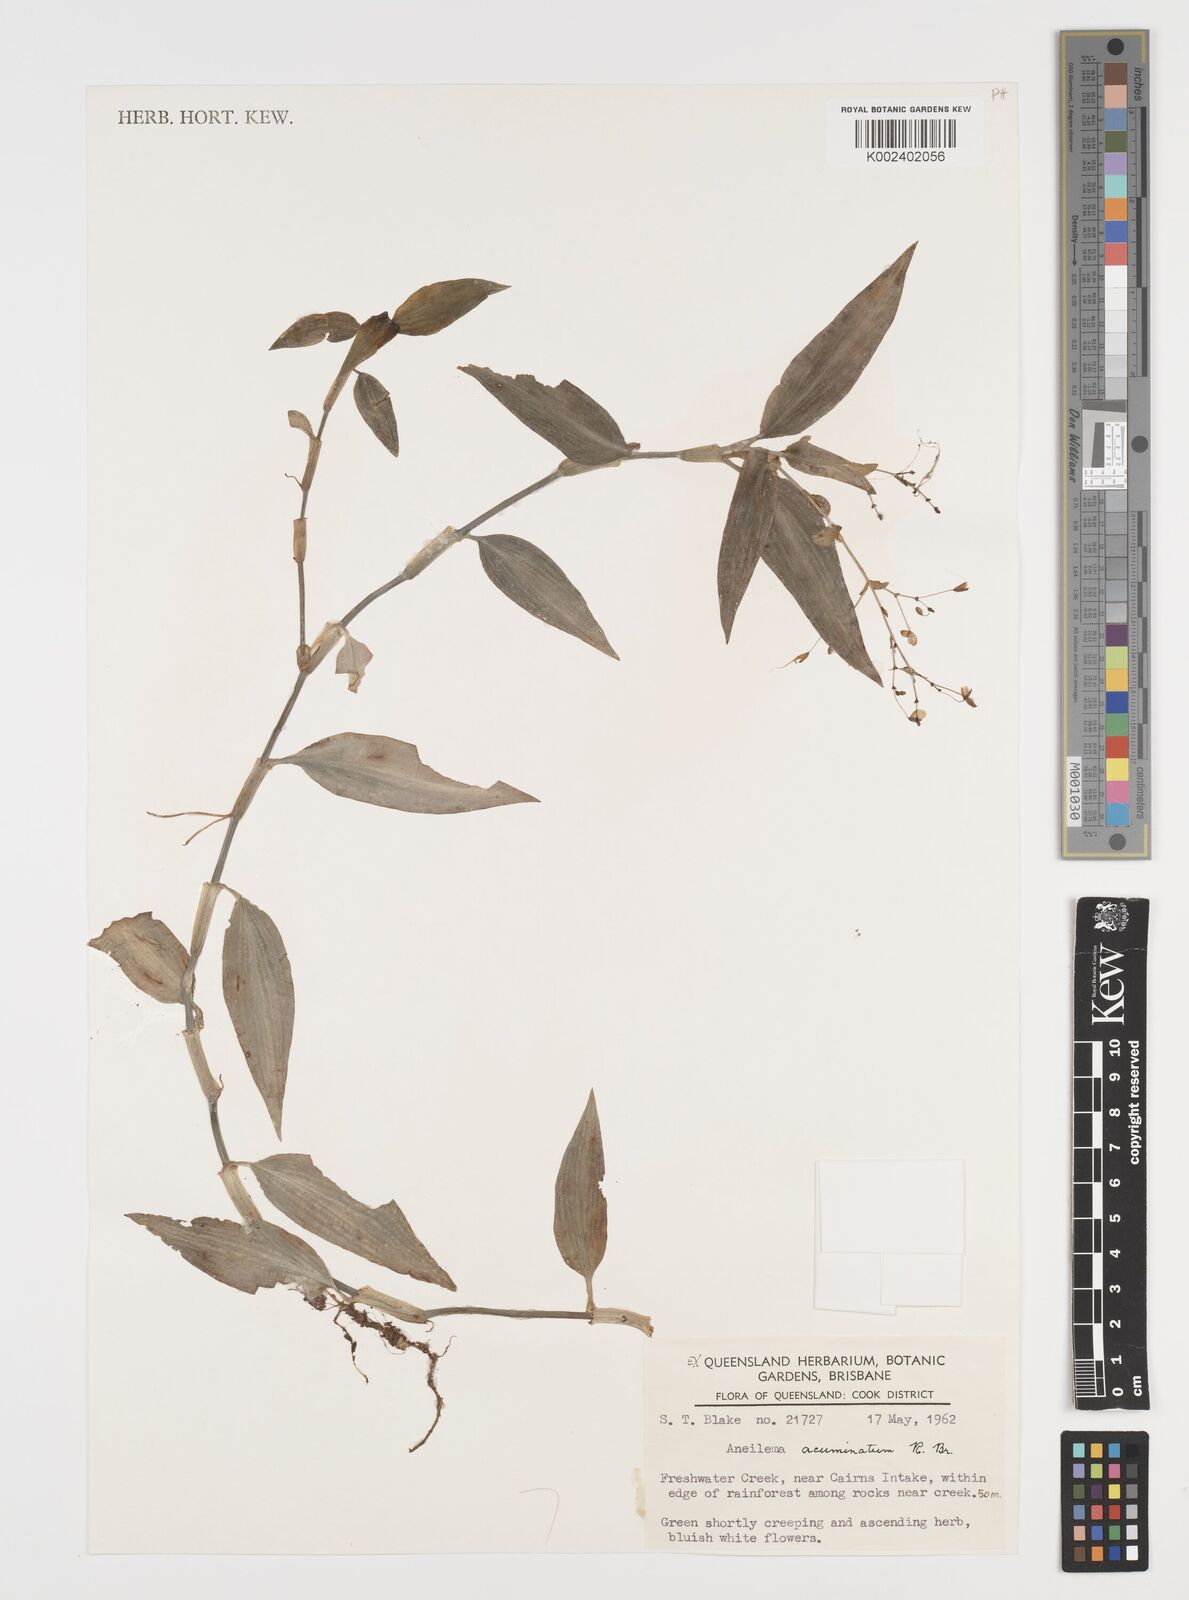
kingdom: Plantae
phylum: Tracheophyta
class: Liliopsida
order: Commelinales
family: Commelinaceae
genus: Aneilema
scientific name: Aneilema acuminatum
